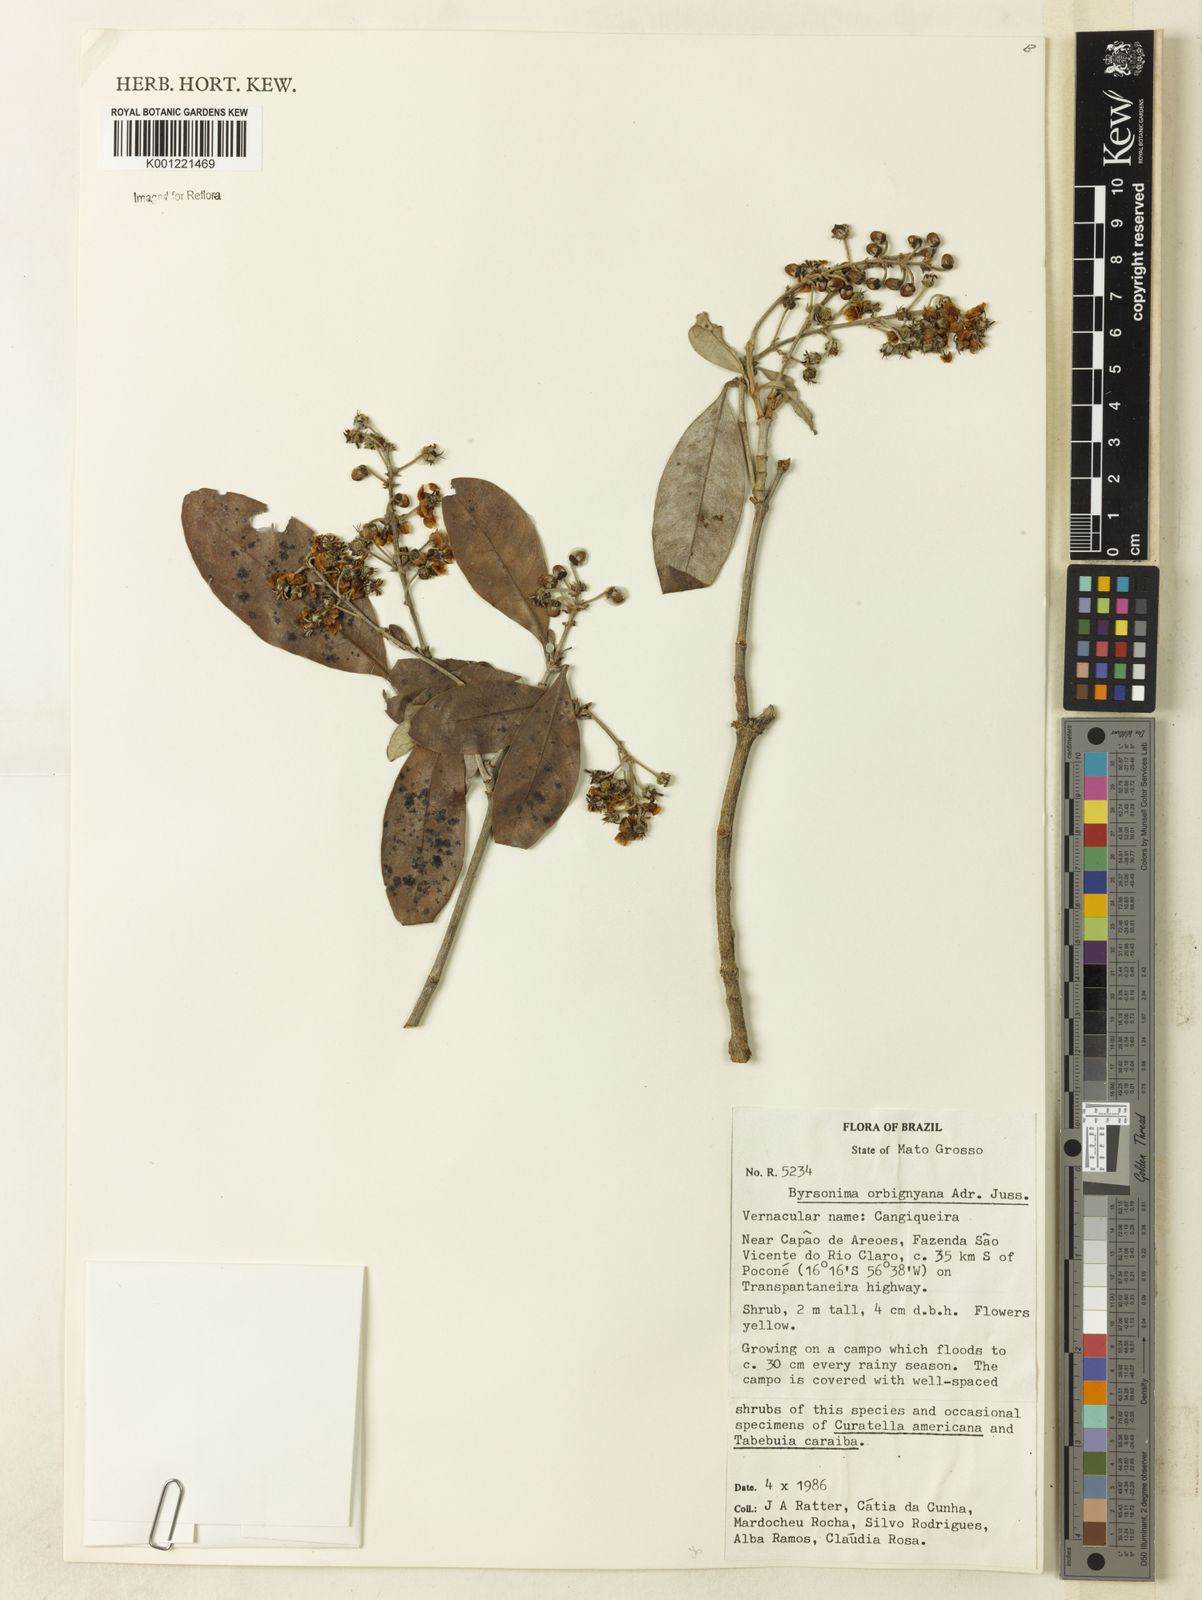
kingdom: Plantae
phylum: Tracheophyta
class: Magnoliopsida
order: Malpighiales
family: Malpighiaceae
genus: Byrsonima
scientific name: Byrsonima cydoniifolia
